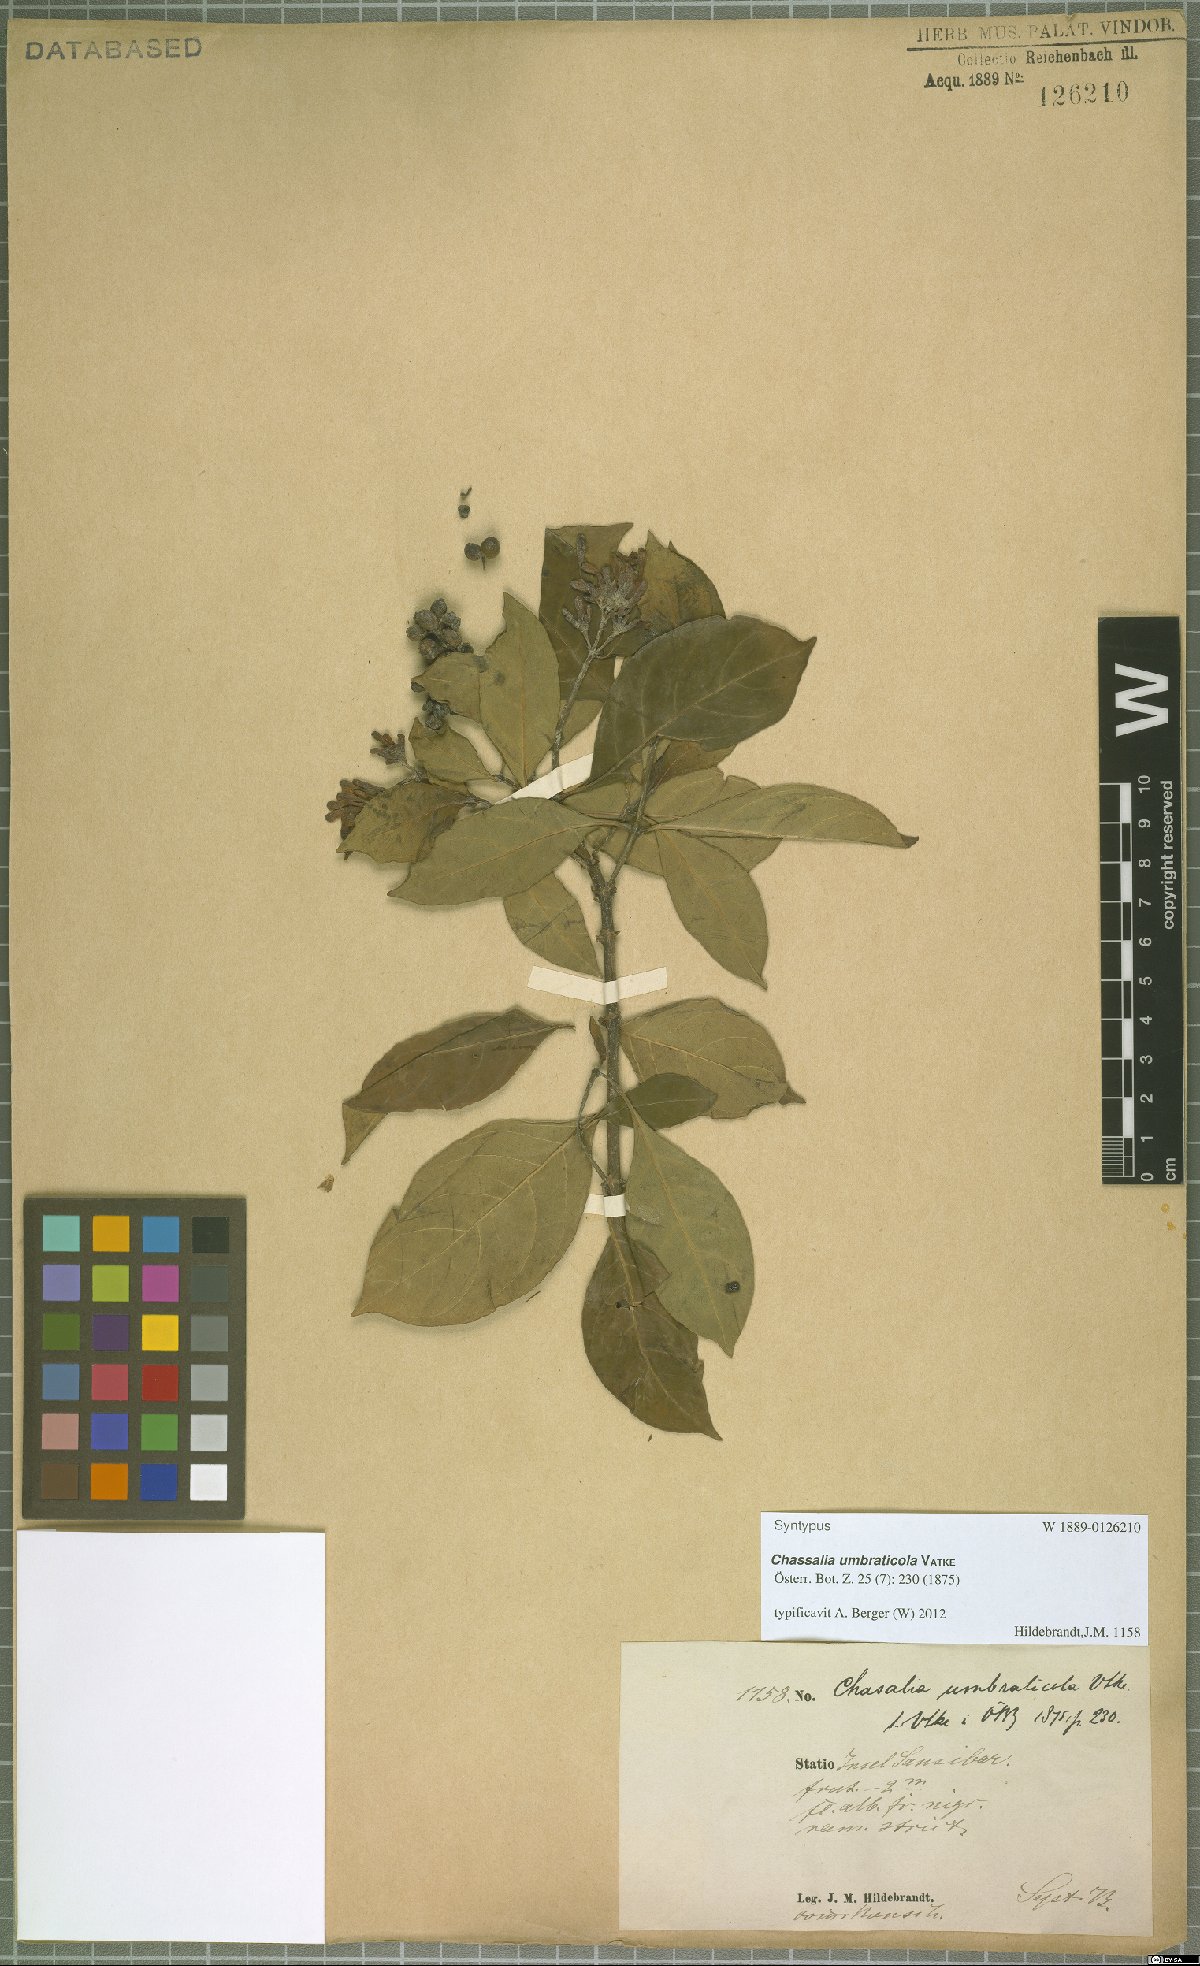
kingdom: Plantae
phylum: Tracheophyta
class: Magnoliopsida
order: Gentianales
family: Rubiaceae
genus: Chassalia
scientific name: Chassalia umbraticola
